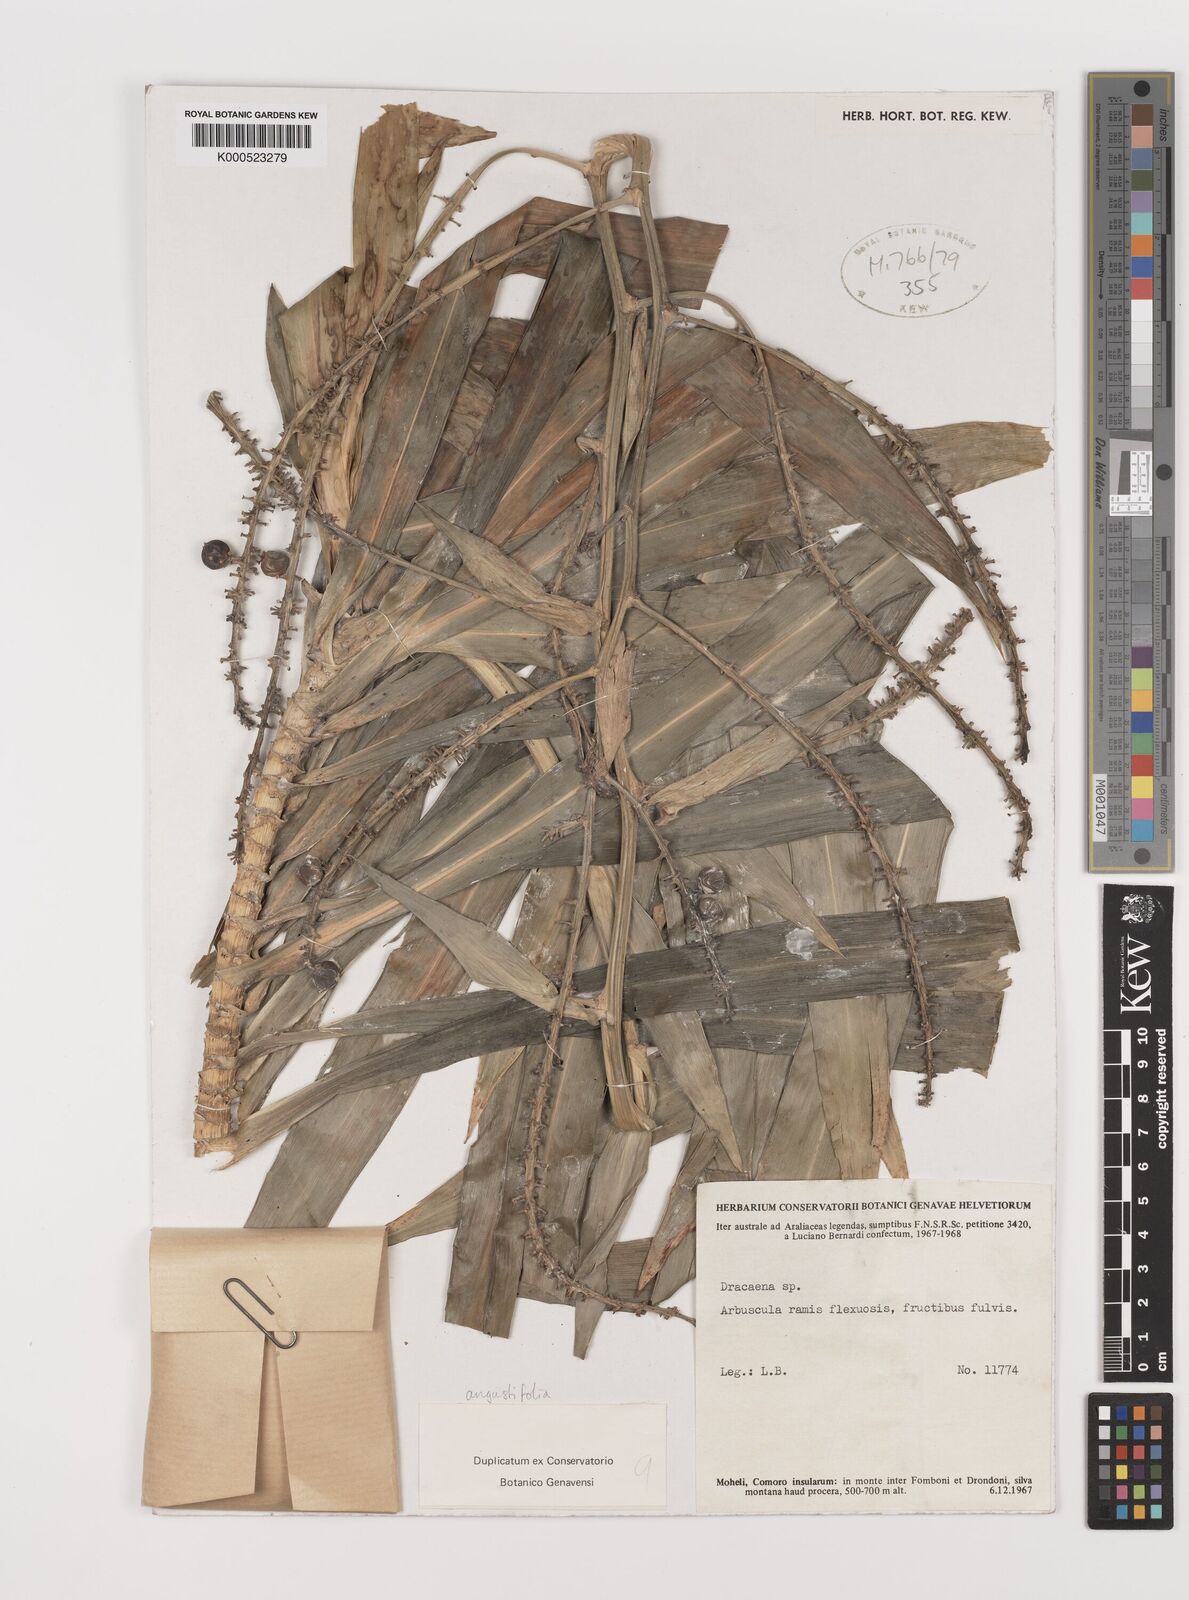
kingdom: Plantae
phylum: Tracheophyta
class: Liliopsida
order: Asparagales
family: Asparagaceae
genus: Dracaena
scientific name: Dracaena angustifolia
